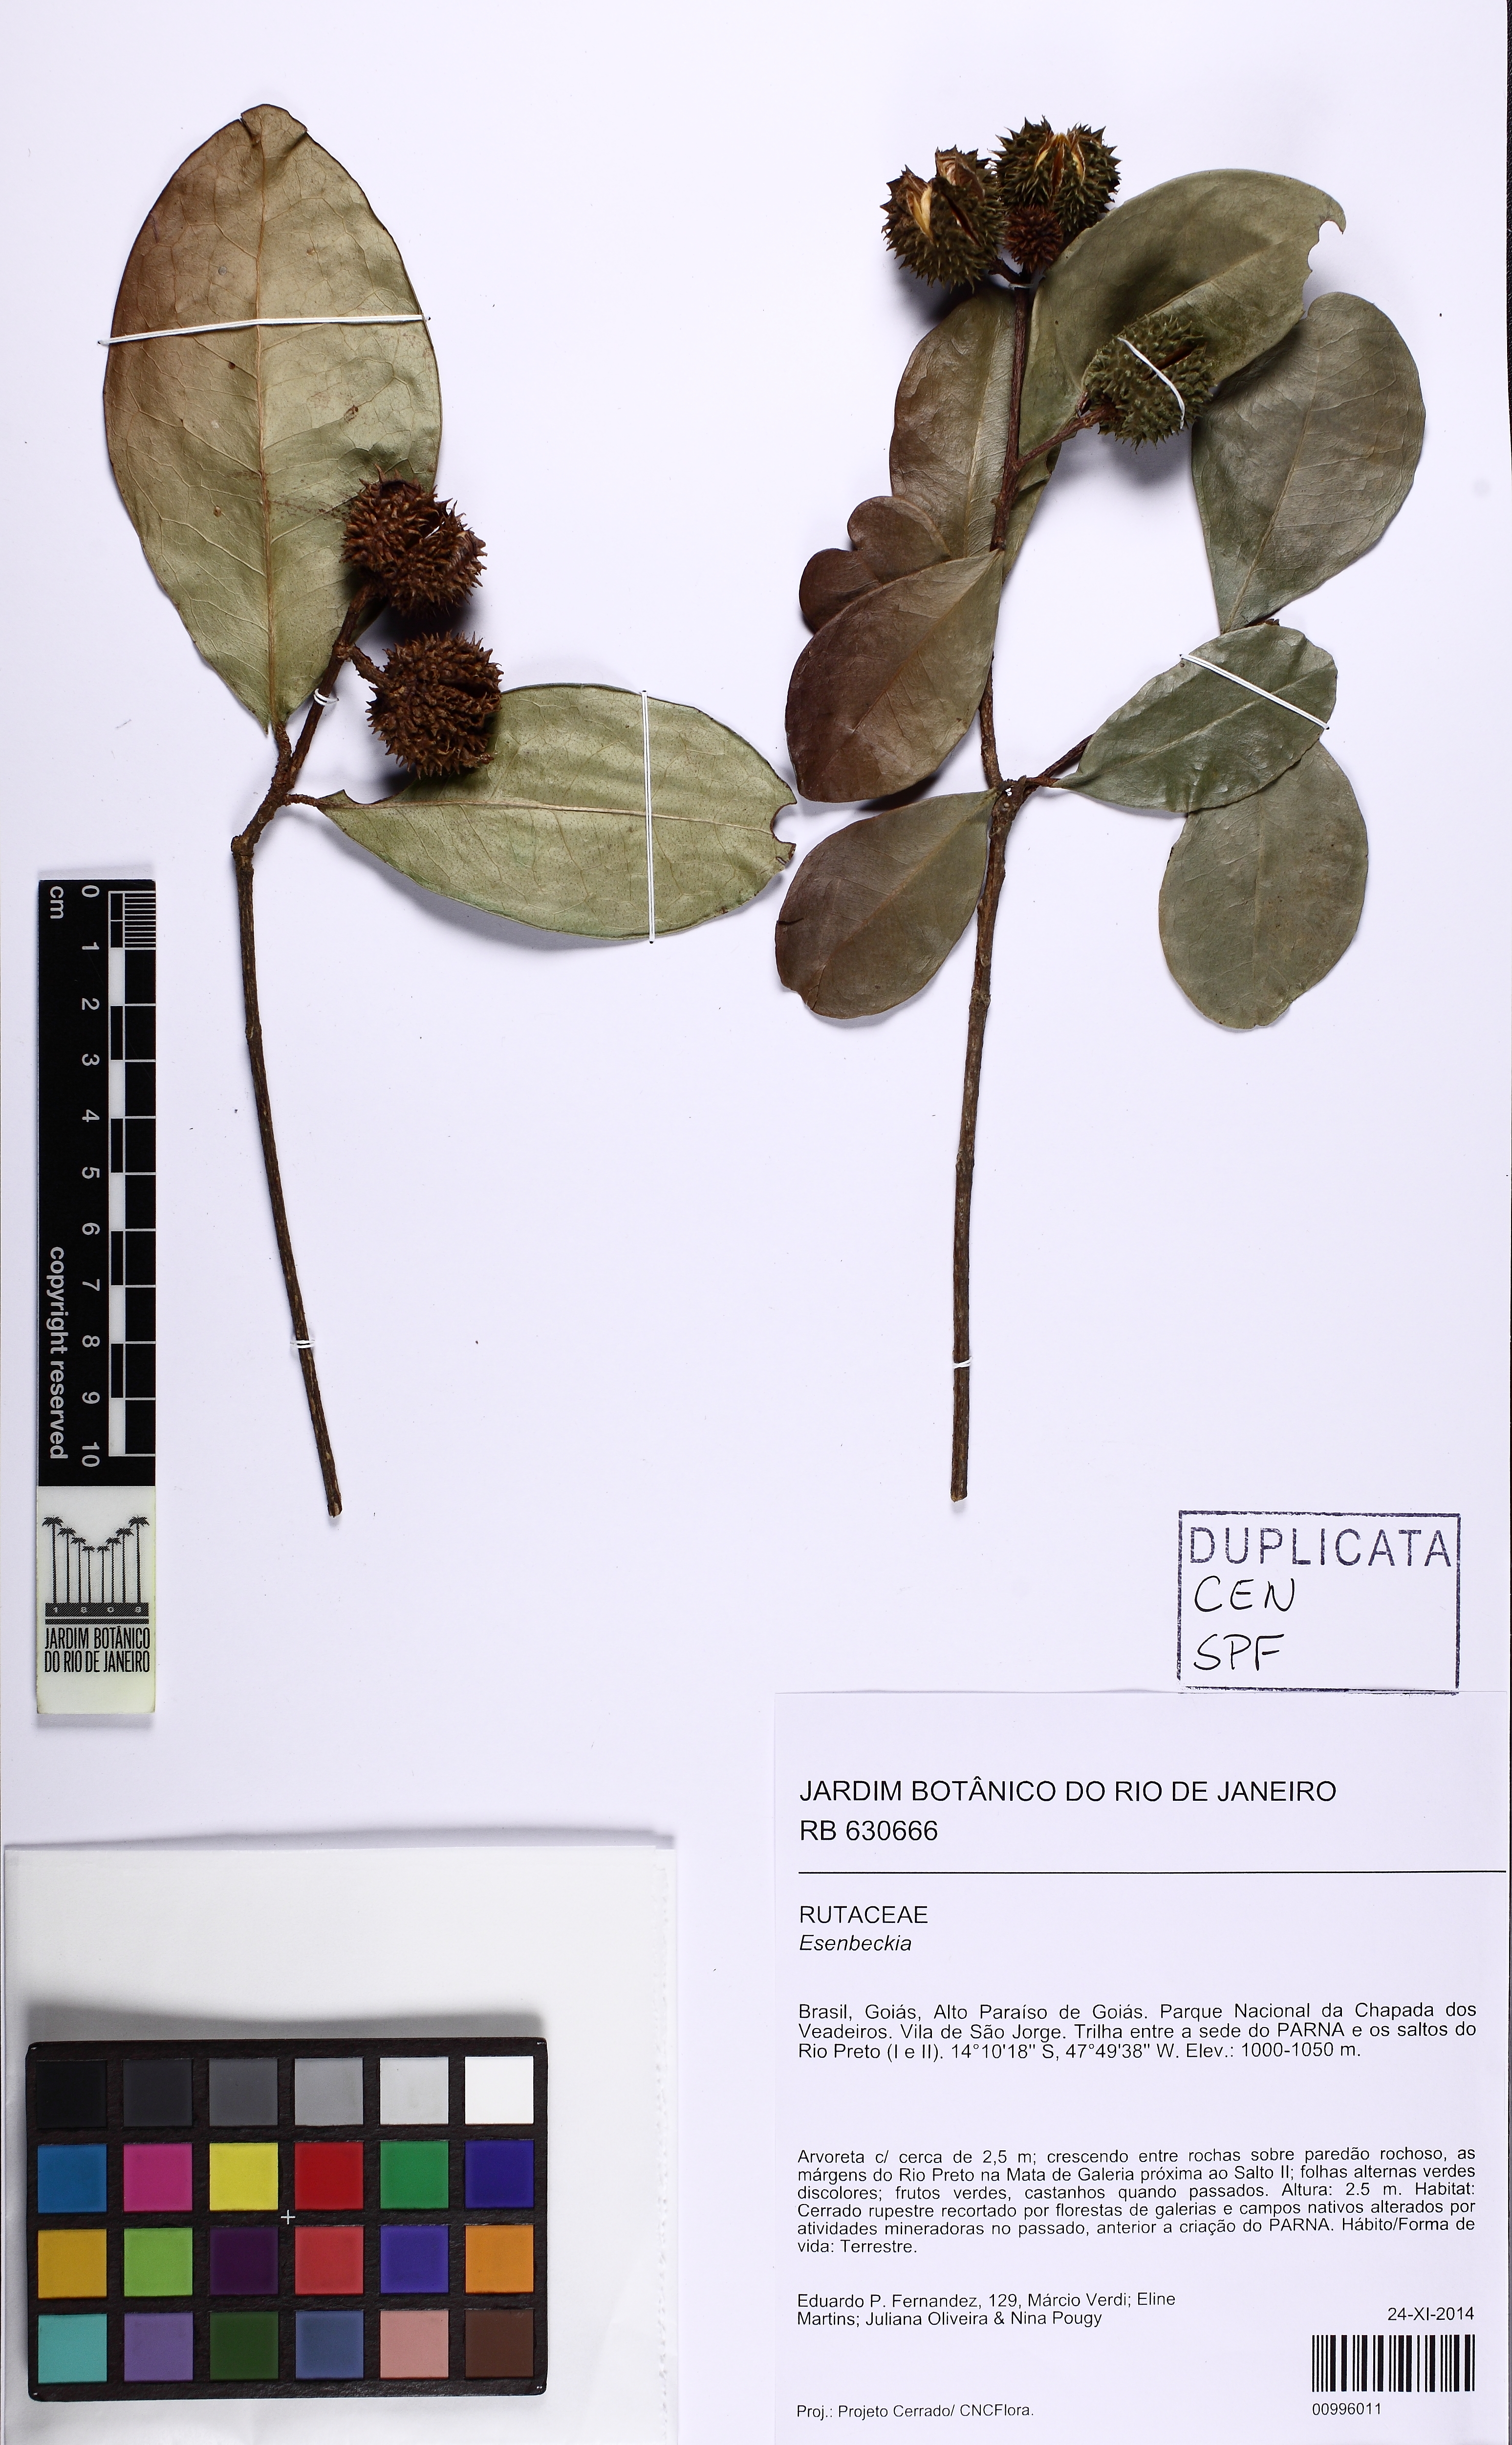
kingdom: Plantae
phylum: Tracheophyta
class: Magnoliopsida
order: Sapindales
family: Rutaceae
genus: Esenbeckia
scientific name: Esenbeckia grandiflora
